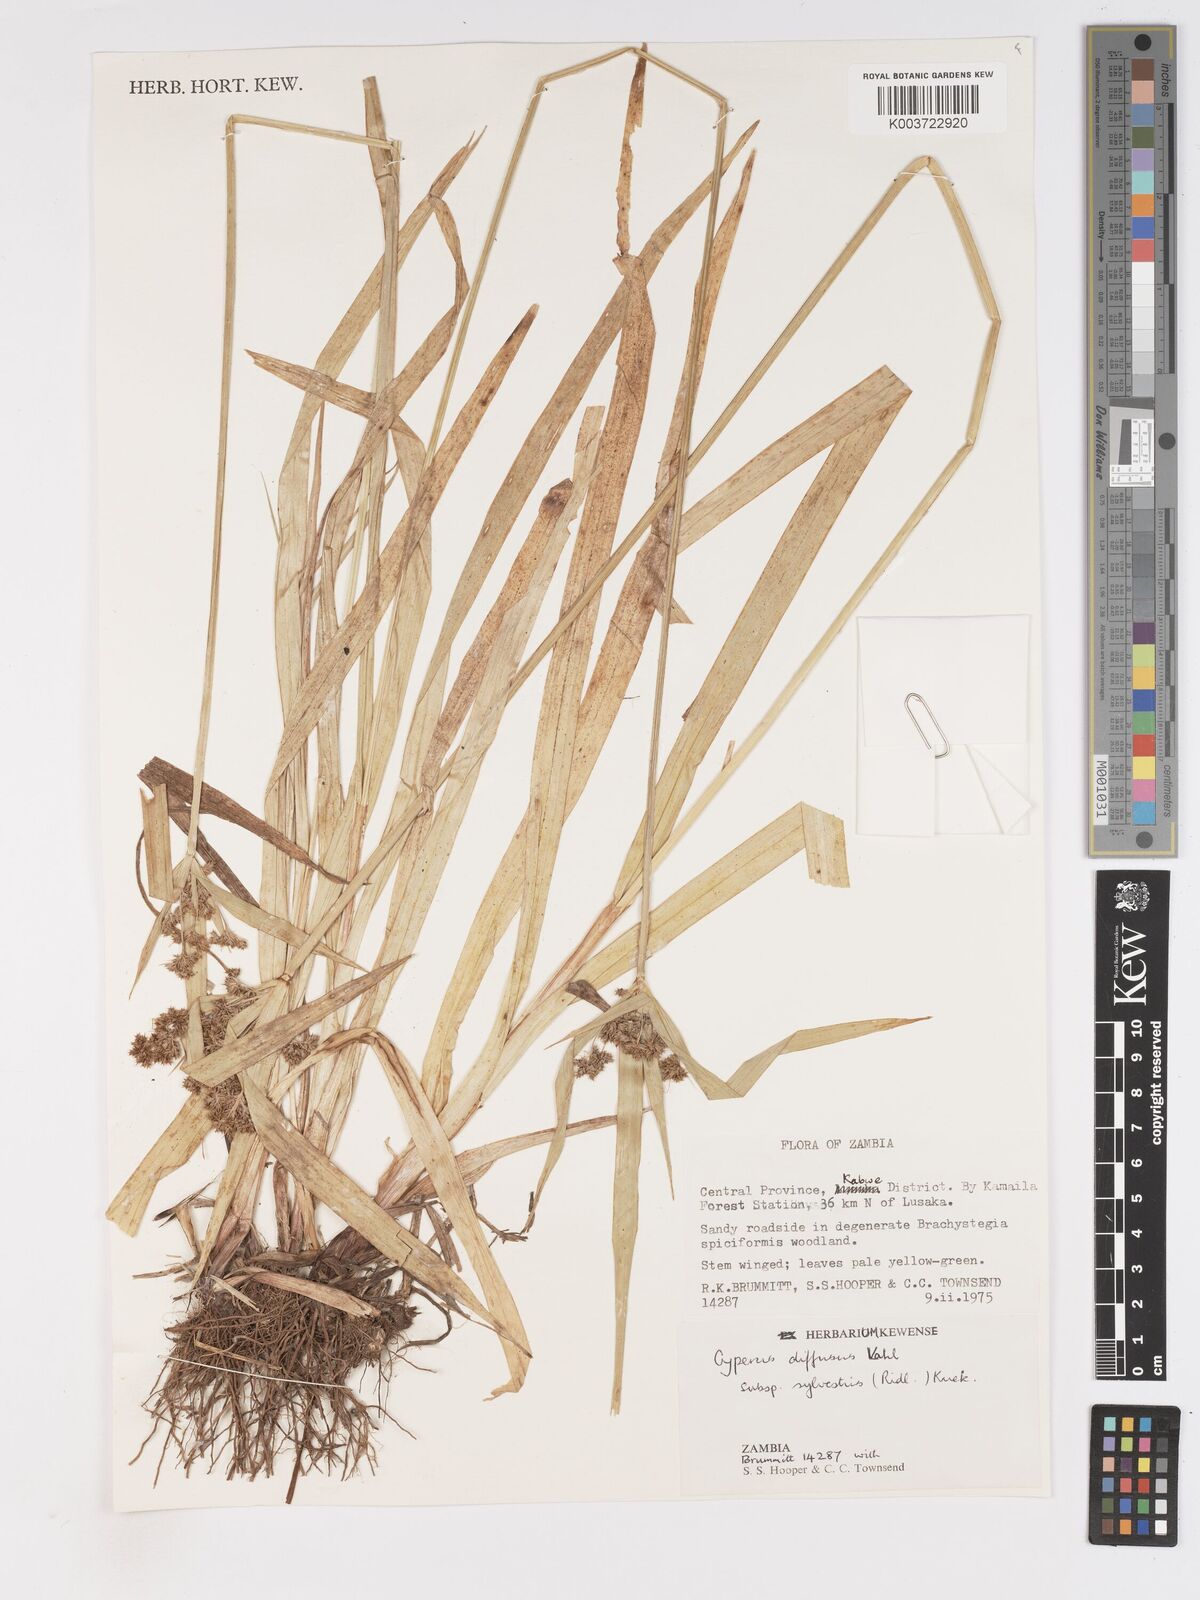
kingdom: Plantae
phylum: Tracheophyta
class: Liliopsida
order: Poales
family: Cyperaceae
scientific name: Cyperaceae
